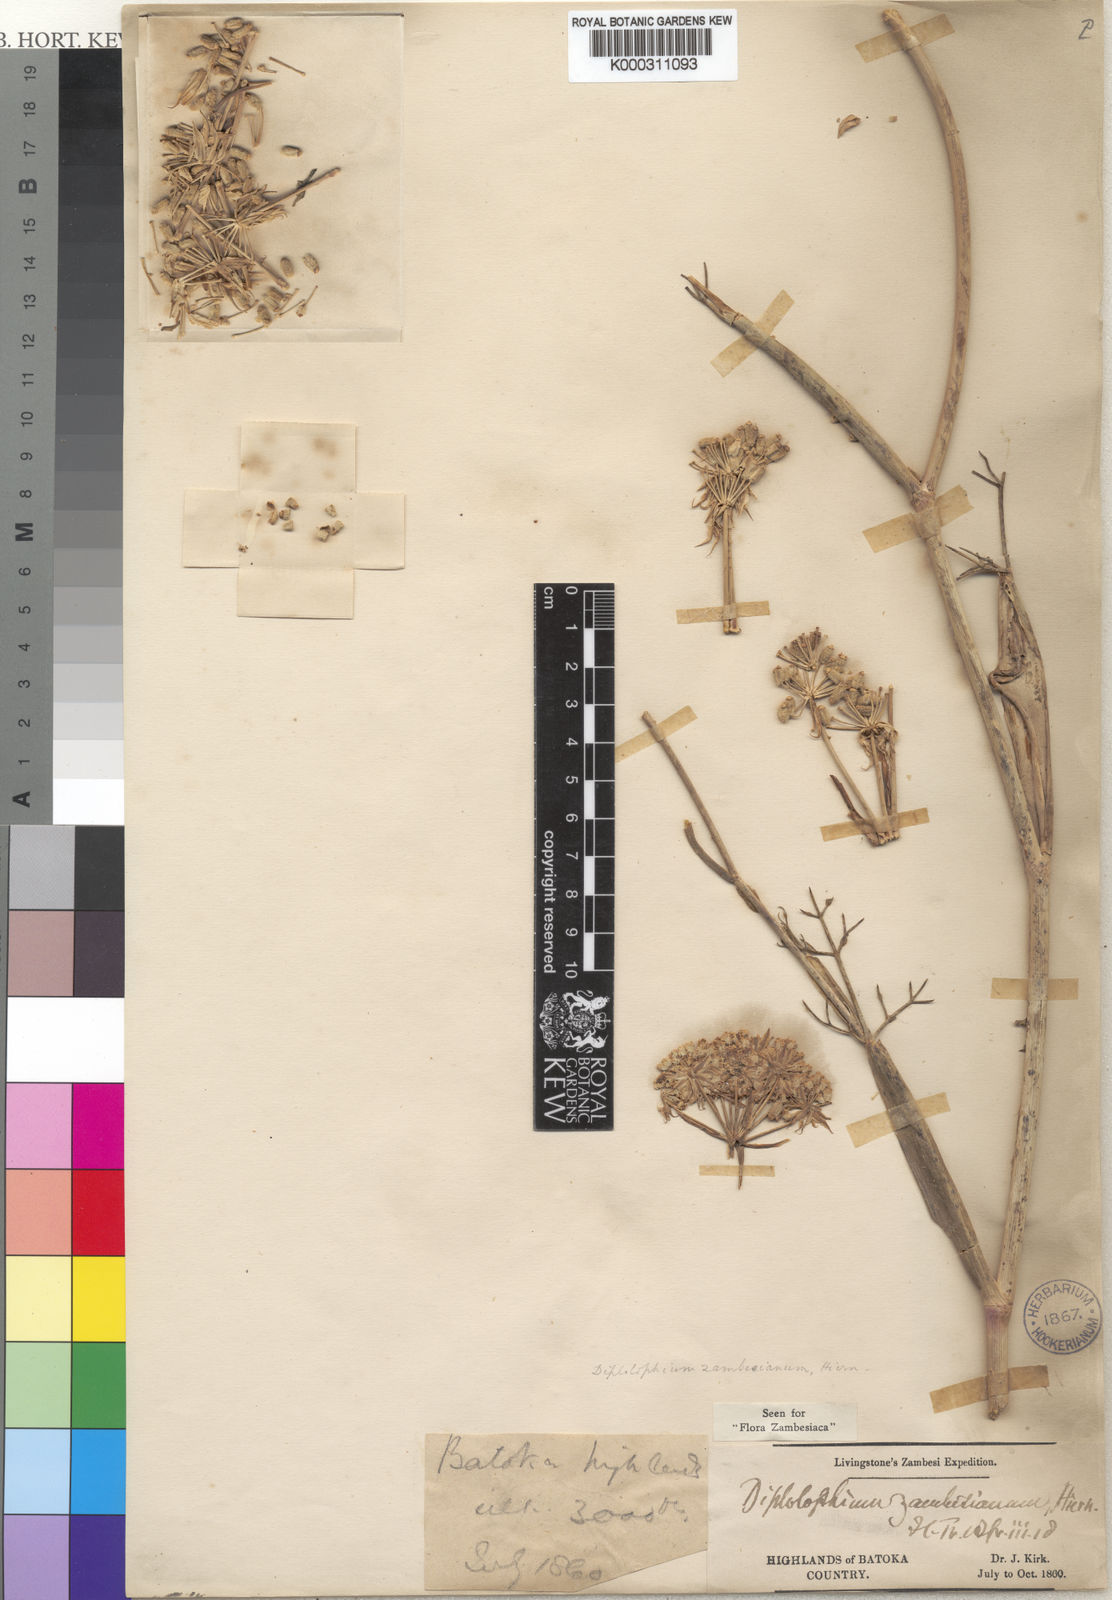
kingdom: Plantae
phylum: Tracheophyta
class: Magnoliopsida
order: Apiales
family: Apiaceae
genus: Diplolophium
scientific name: Diplolophium zambesianum
